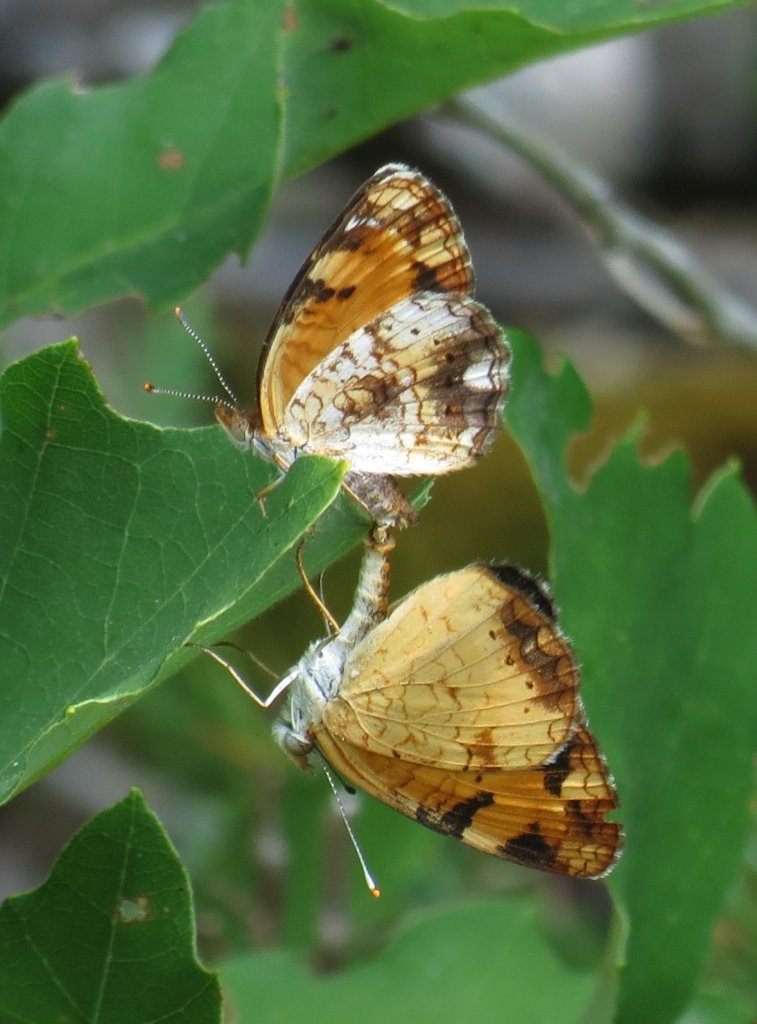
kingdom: Animalia
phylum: Arthropoda
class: Insecta
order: Lepidoptera
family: Nymphalidae
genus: Phyciodes
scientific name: Phyciodes tharos
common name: Northern Crescent
